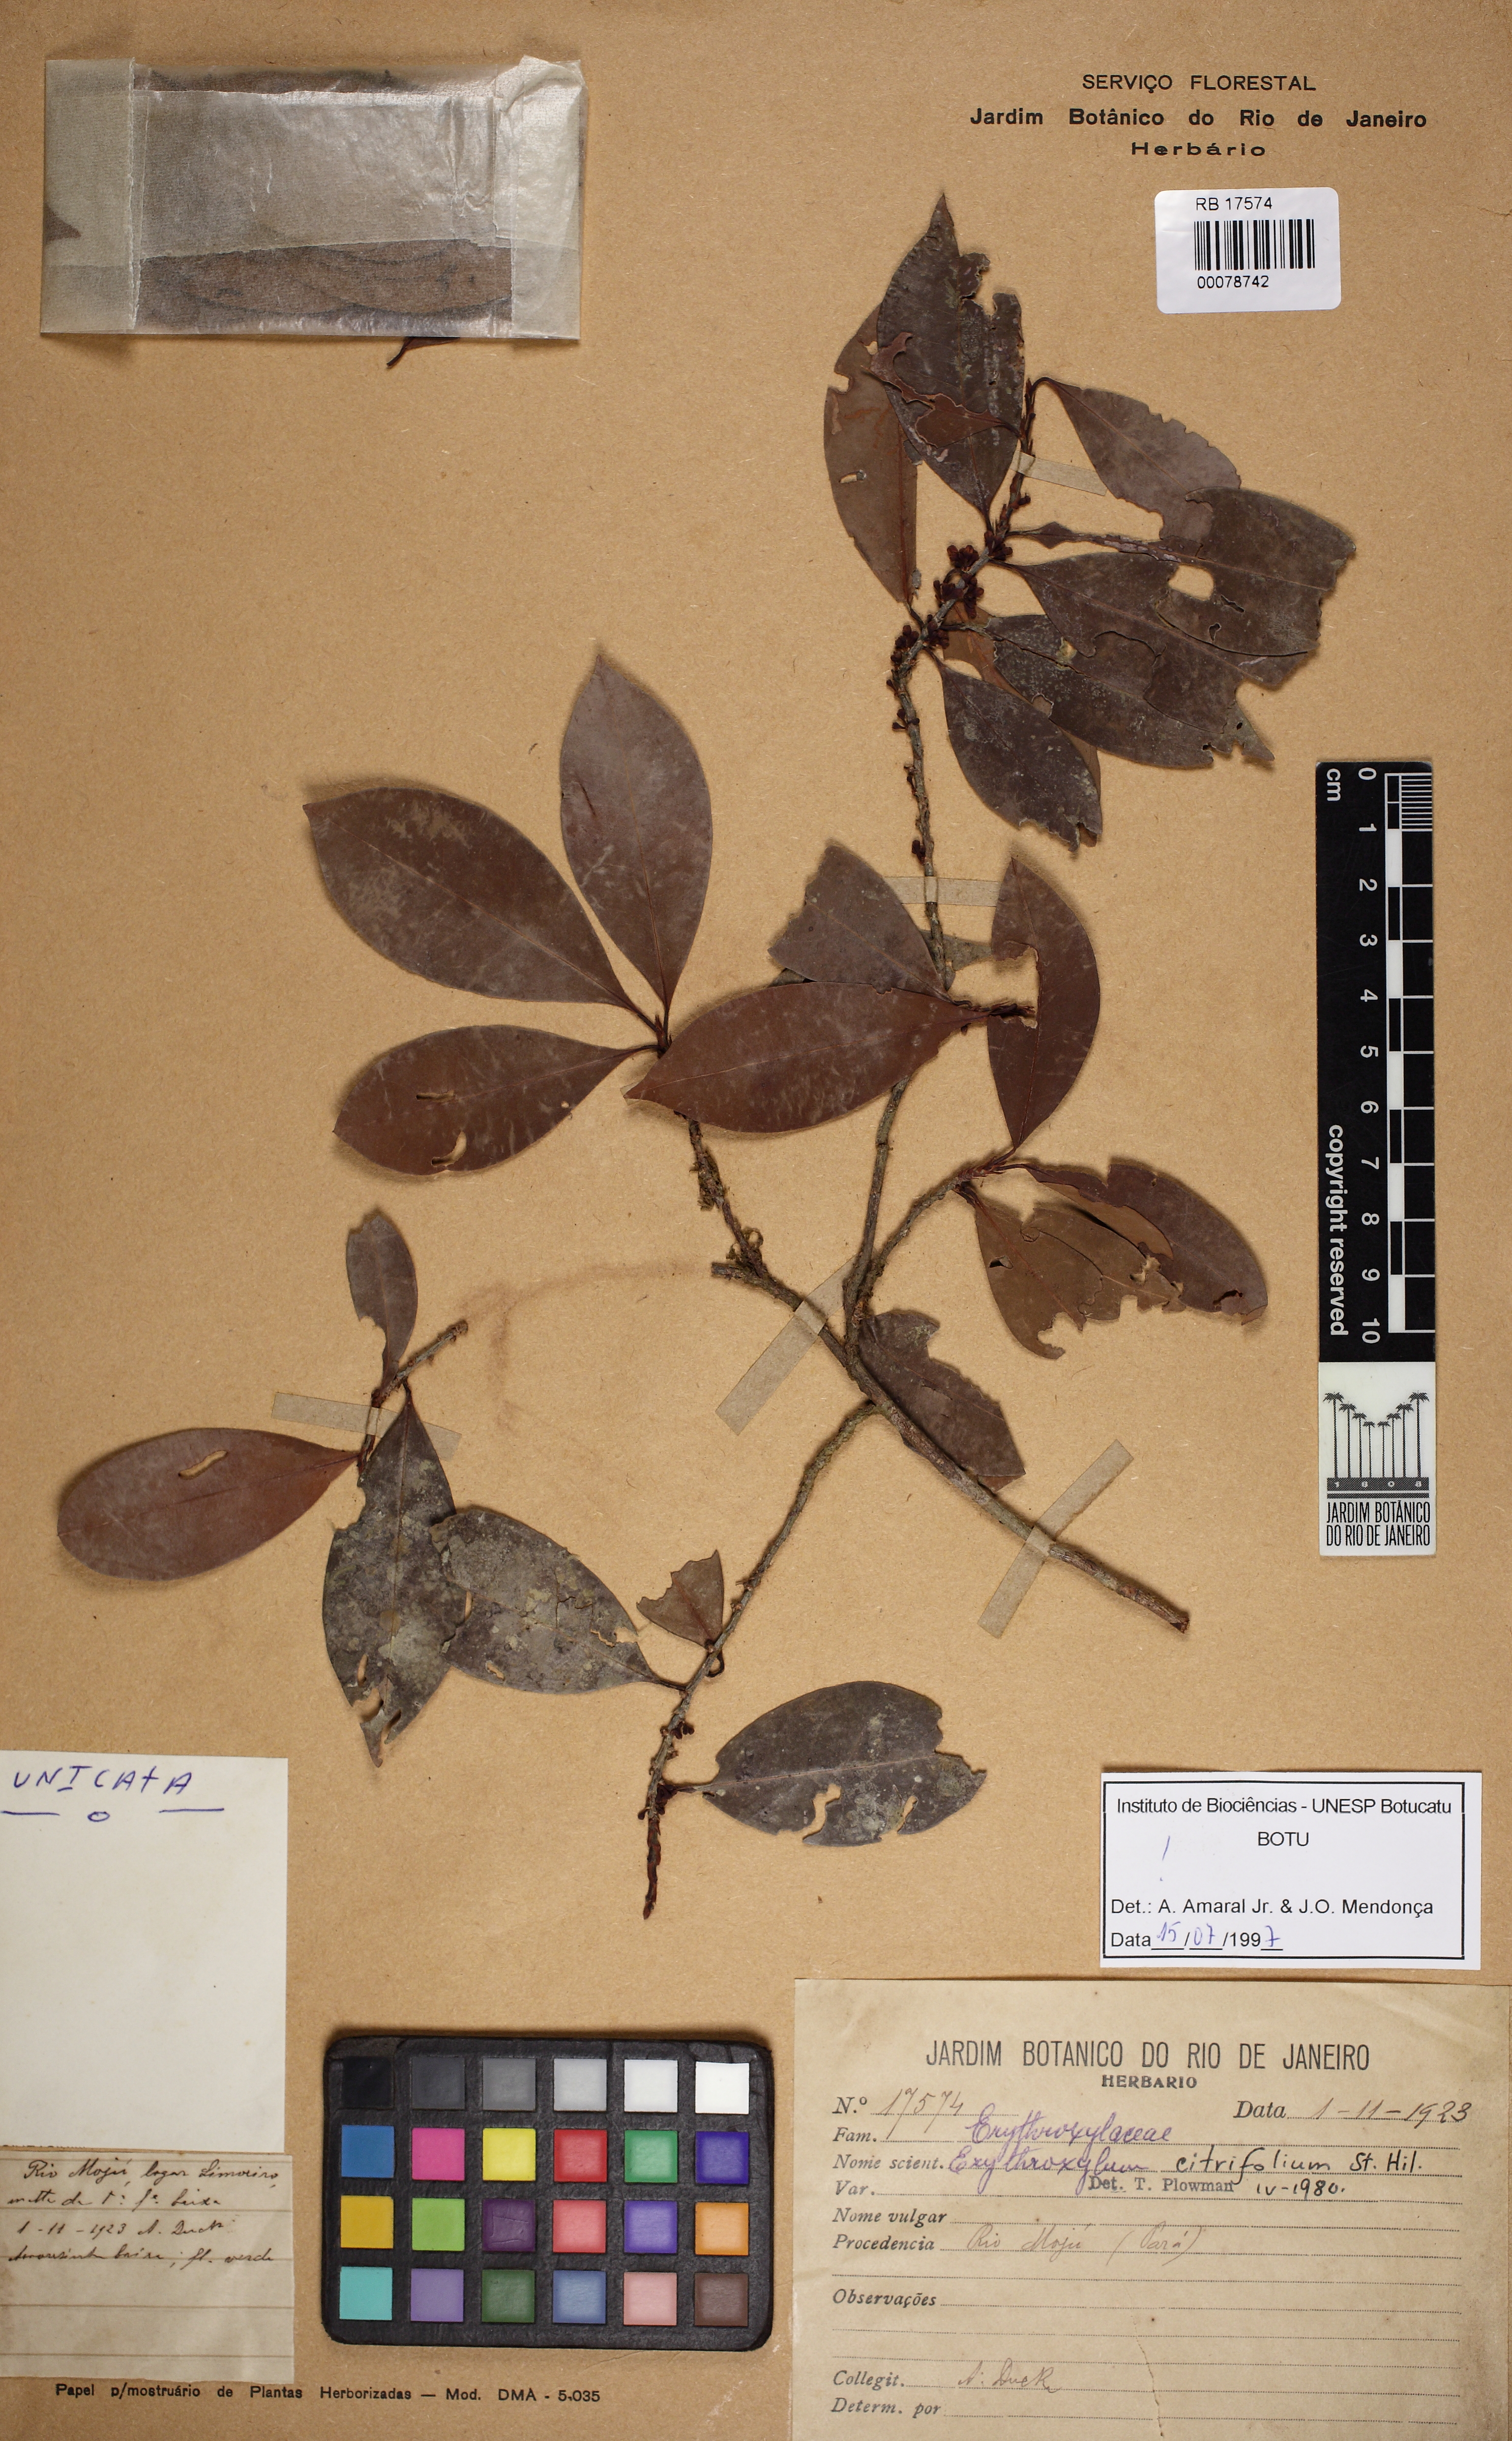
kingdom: Plantae
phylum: Tracheophyta
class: Magnoliopsida
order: Malpighiales
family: Erythroxylaceae
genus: Erythroxylum
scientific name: Erythroxylum citrifolium
